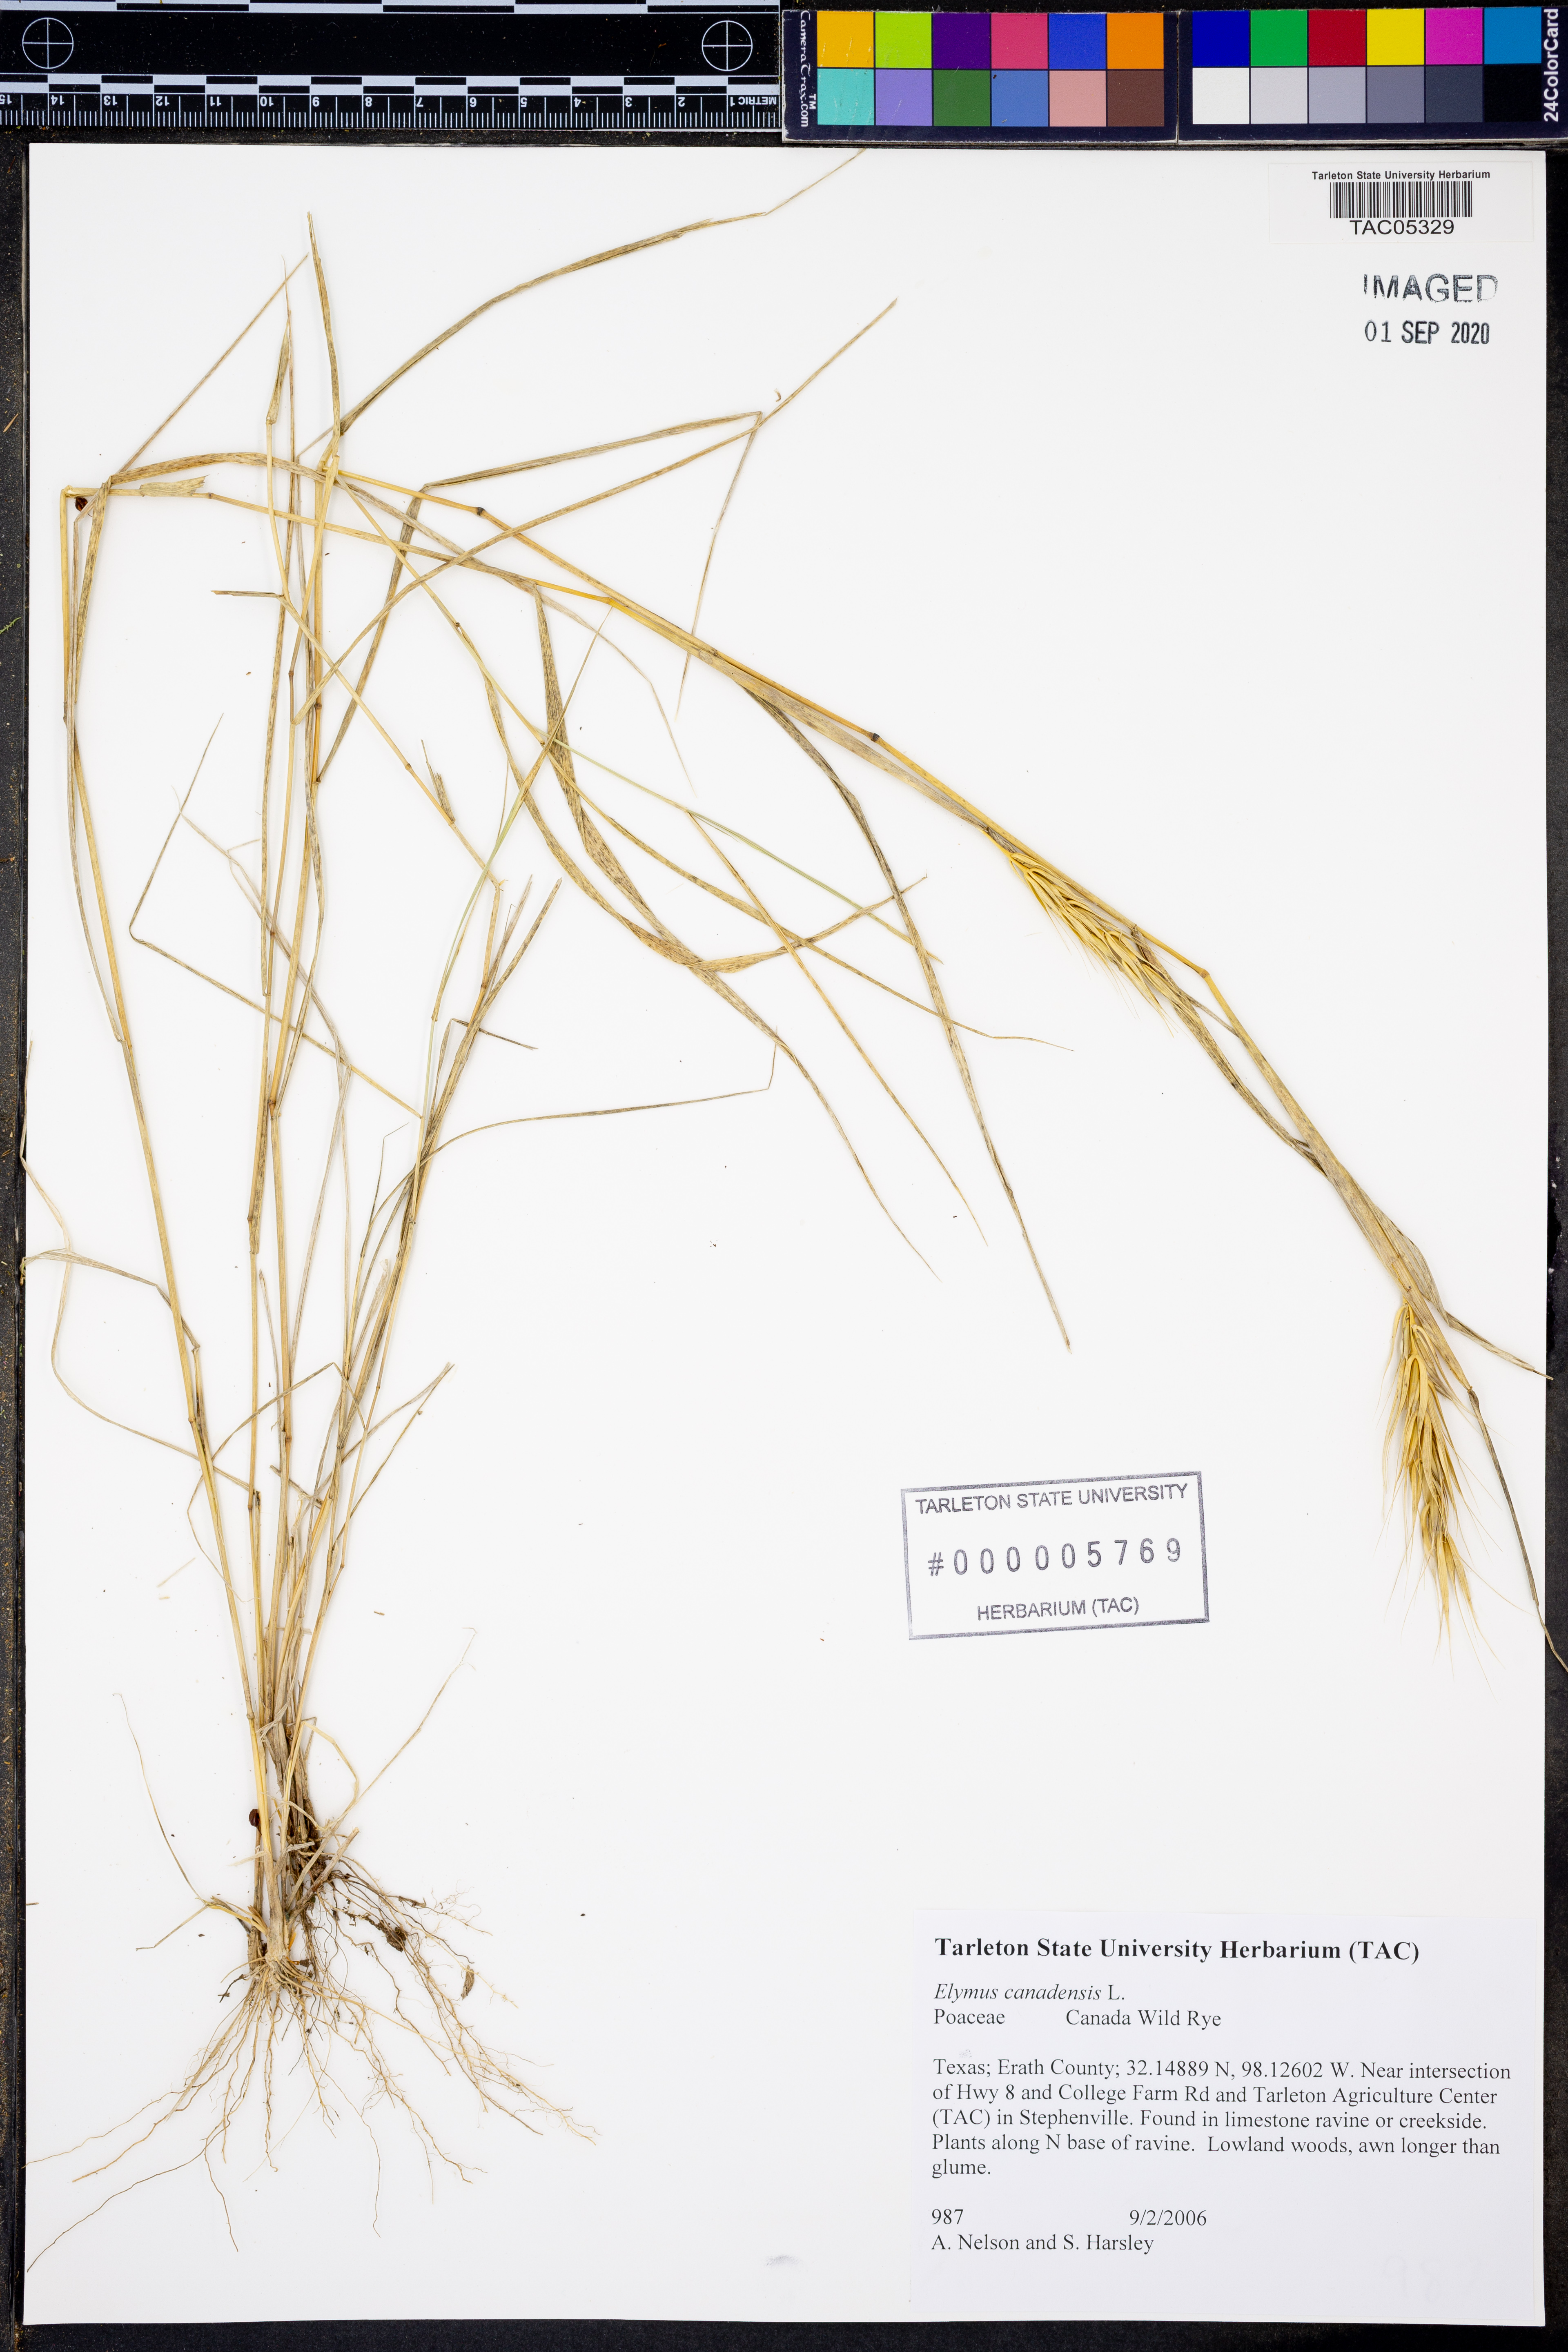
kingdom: Plantae
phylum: Tracheophyta
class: Liliopsida
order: Poales
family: Poaceae
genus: Elymus
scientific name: Elymus canadensis
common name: Canada wild rye
